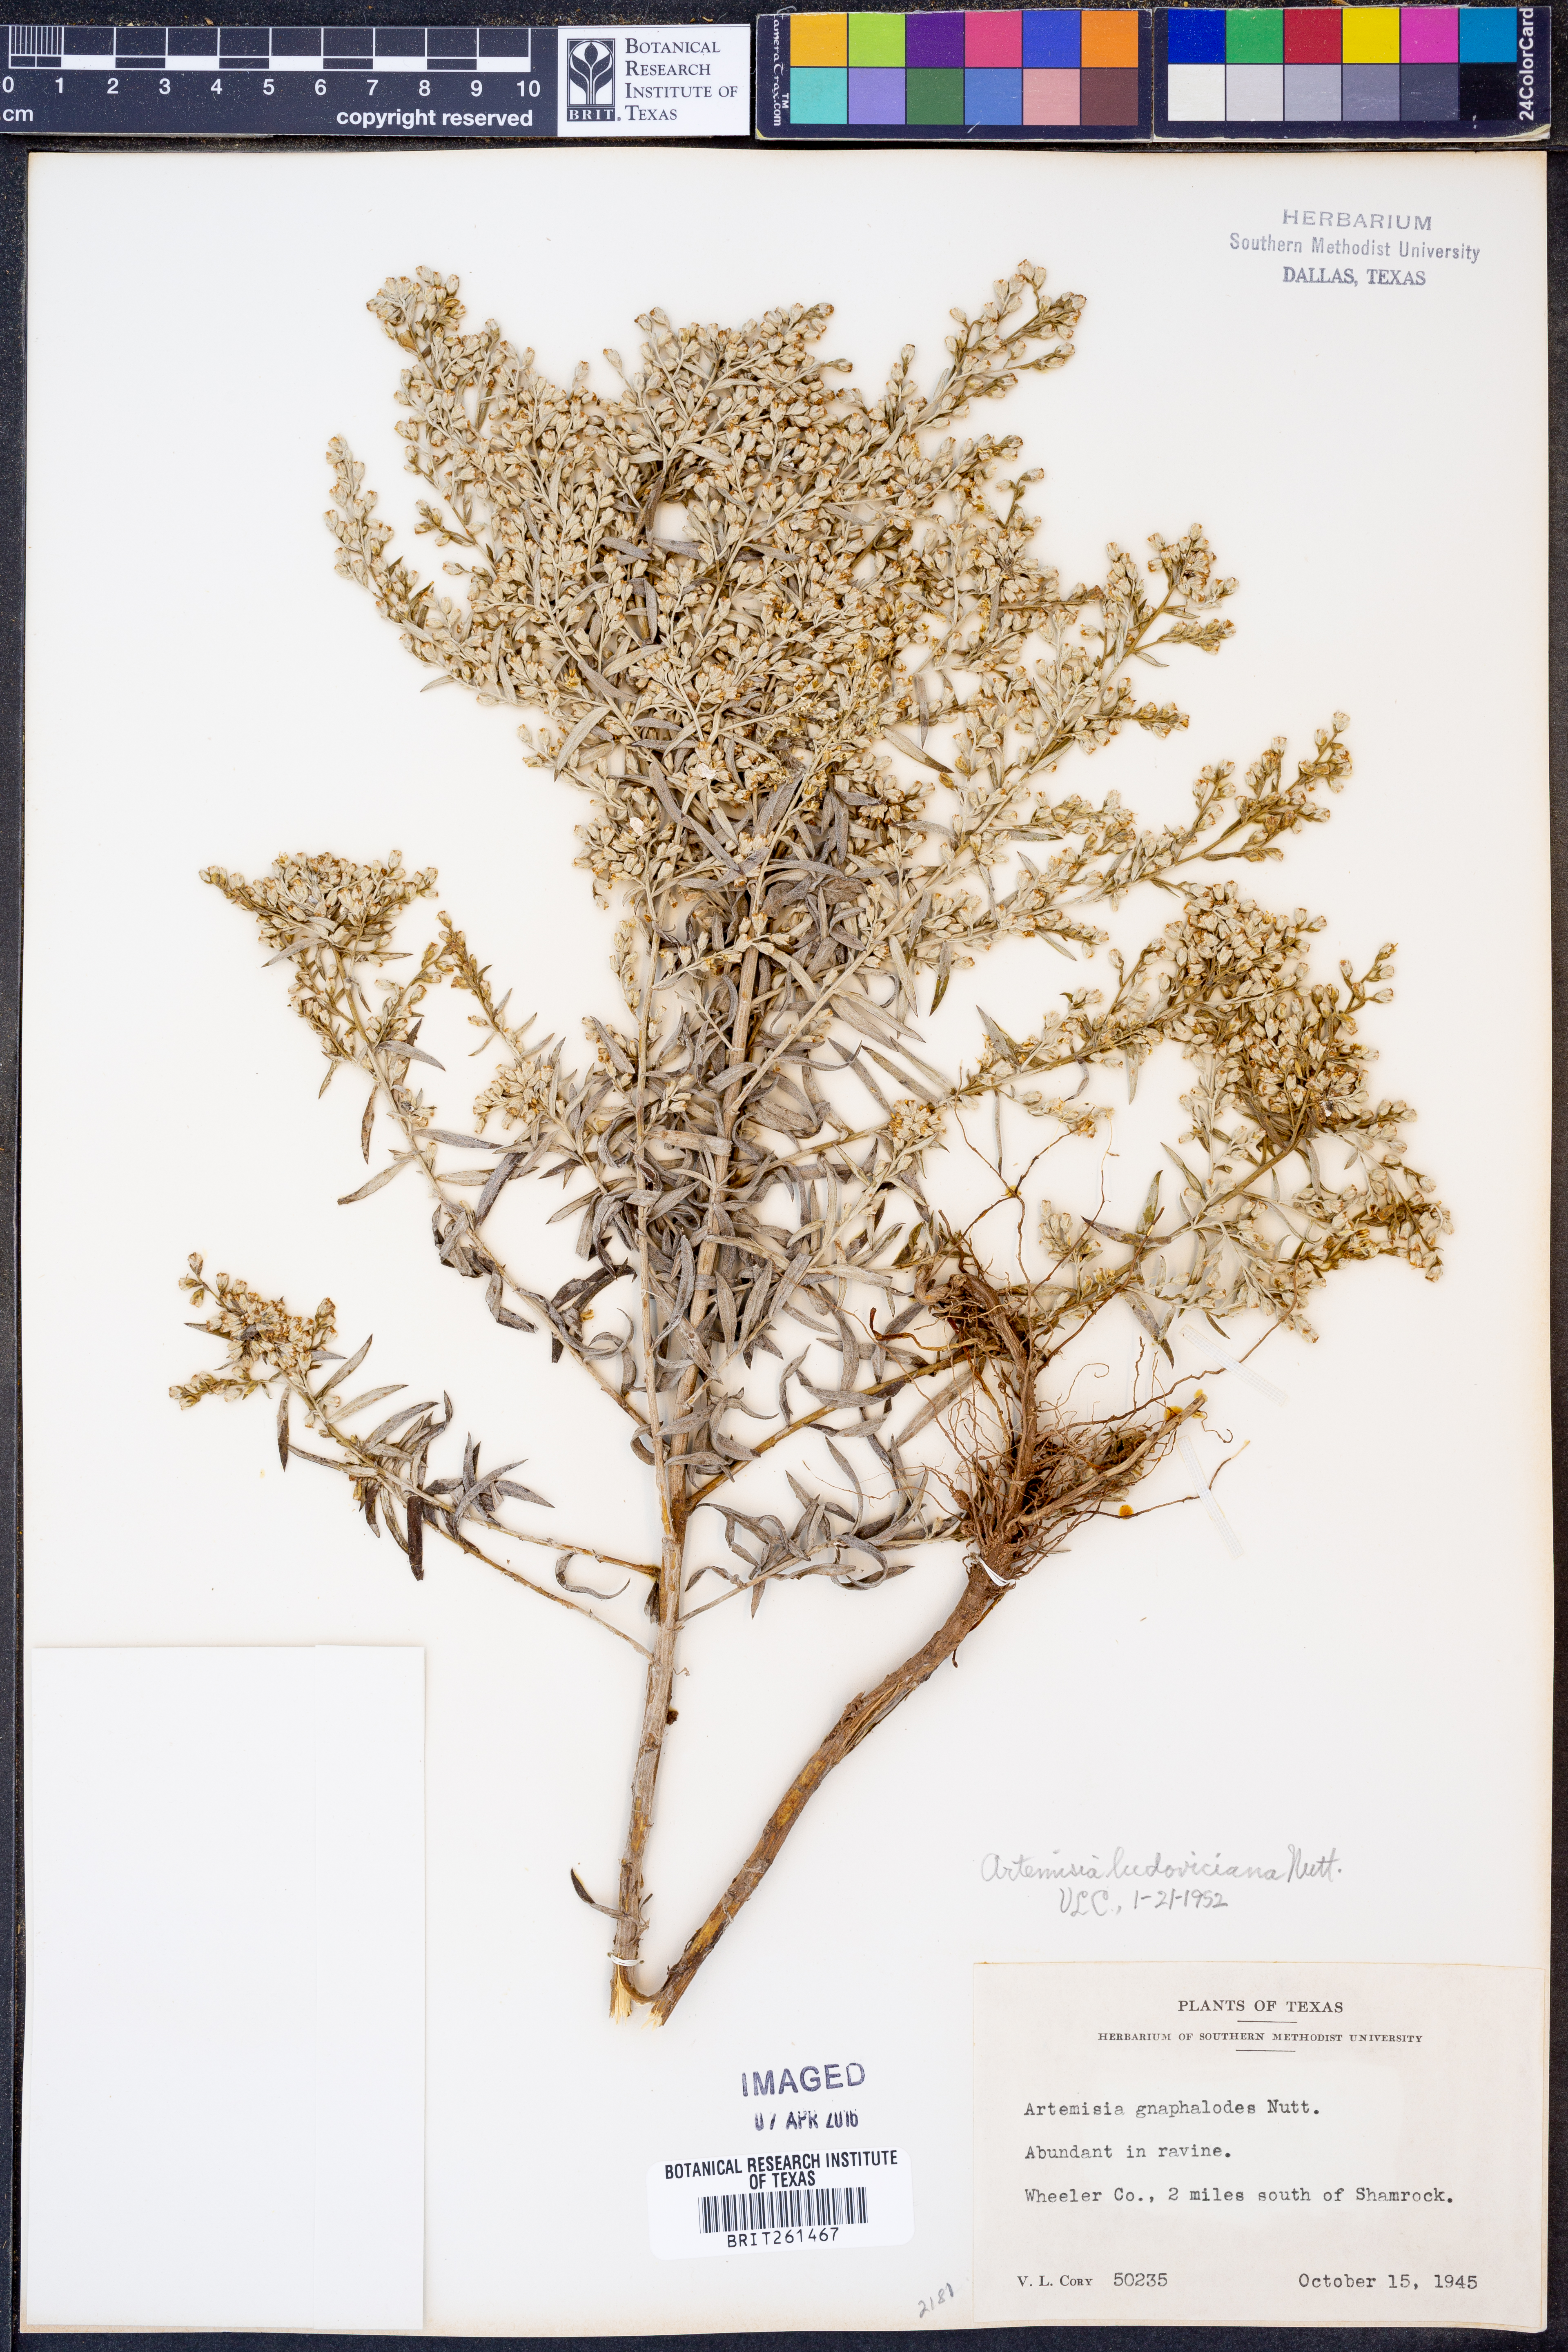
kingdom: Plantae
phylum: Tracheophyta
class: Magnoliopsida
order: Asterales
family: Asteraceae
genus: Artemisia
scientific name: Artemisia ludoviciana
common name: Western mugwort
